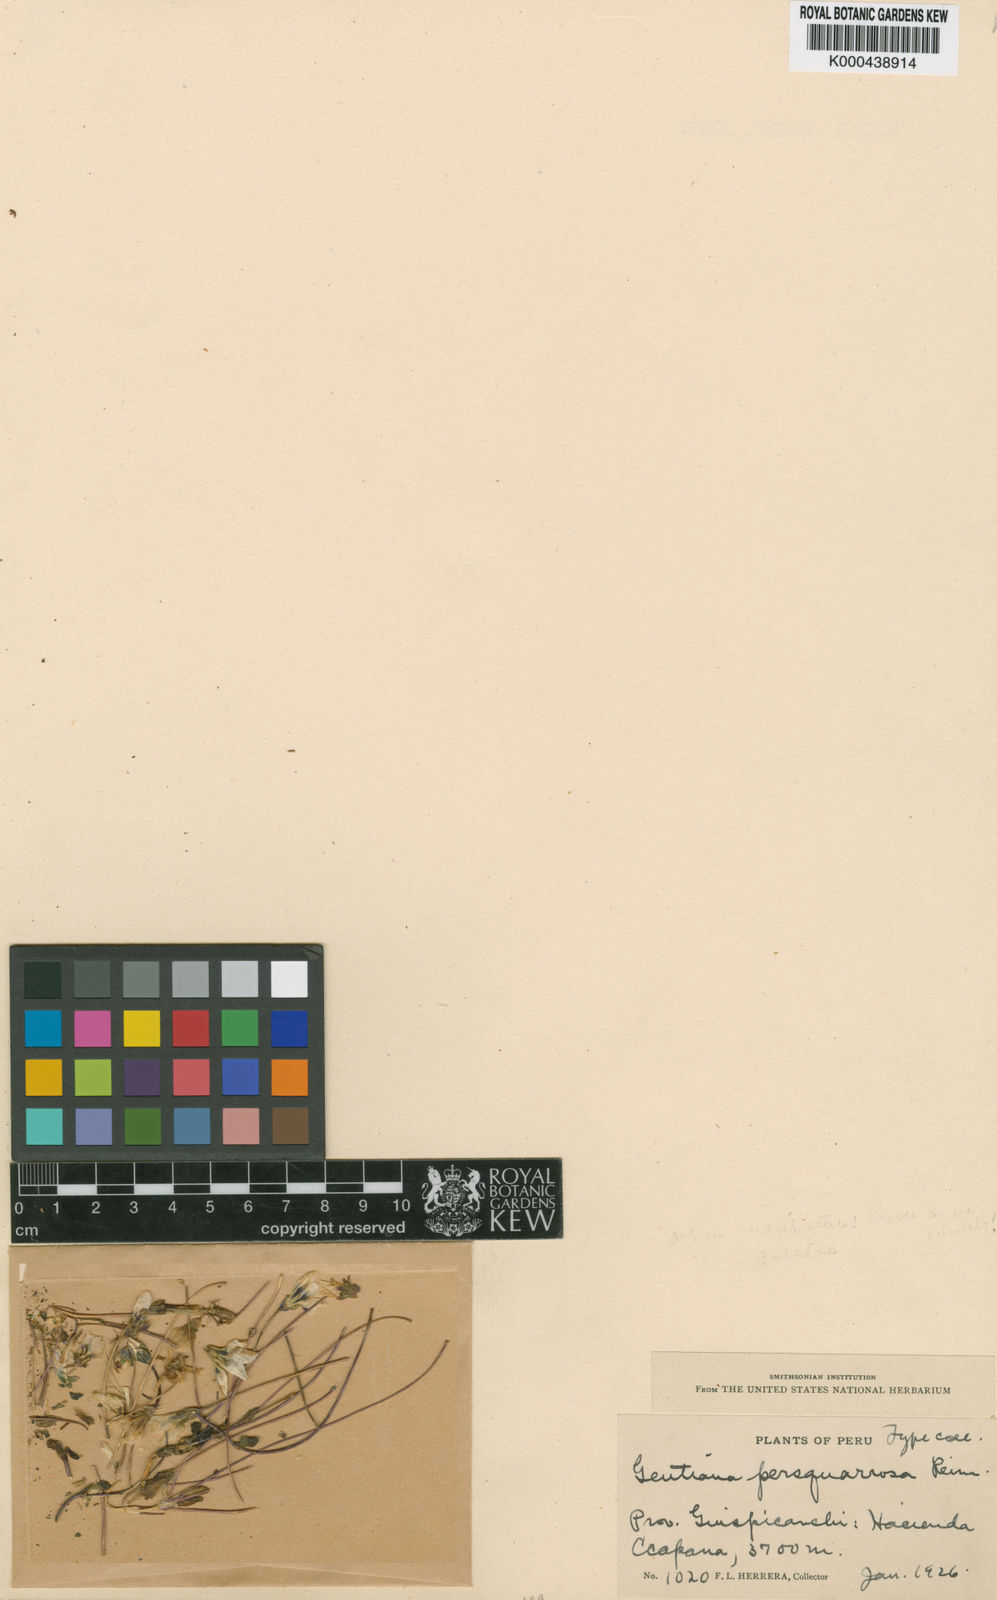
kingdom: Plantae
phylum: Tracheophyta
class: Magnoliopsida
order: Gentianales
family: Gentianaceae
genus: Gentianella
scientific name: Gentianella persquarrosa
